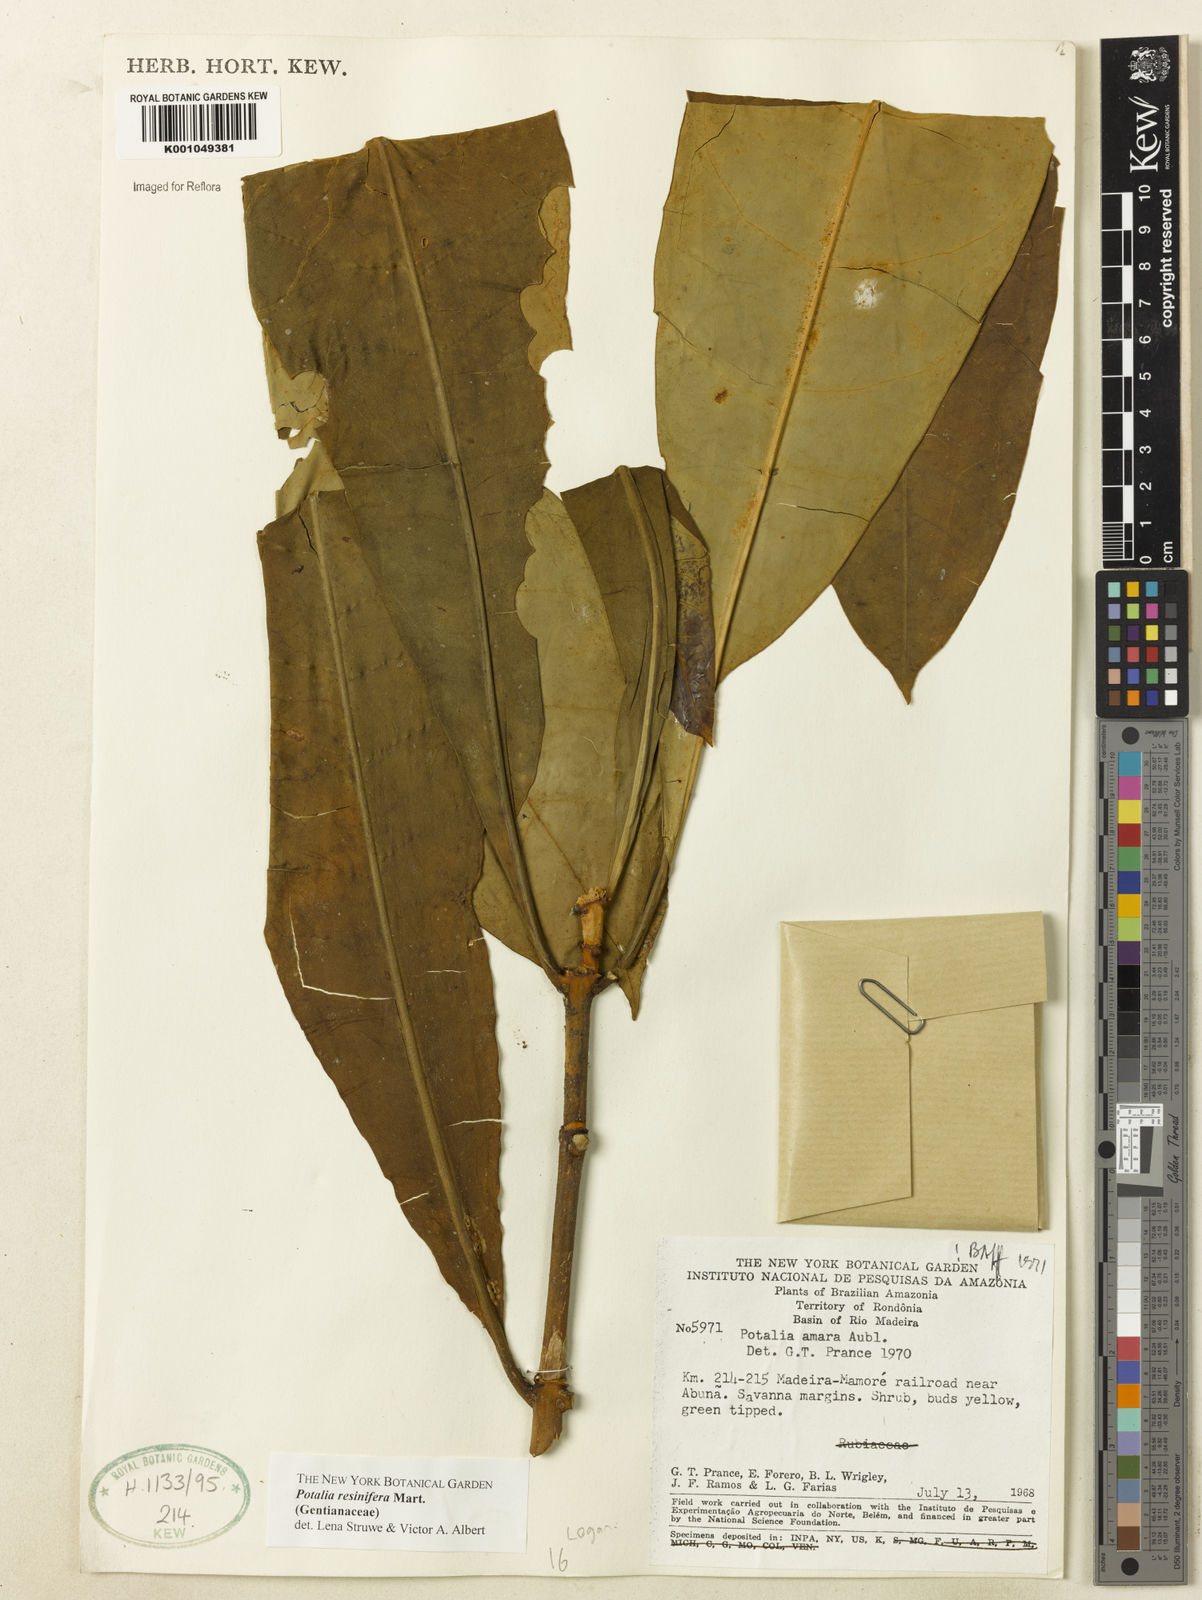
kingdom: Plantae
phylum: Tracheophyta
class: Magnoliopsida
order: Gentianales
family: Gentianaceae
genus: Potalia
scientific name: Potalia resinifera
